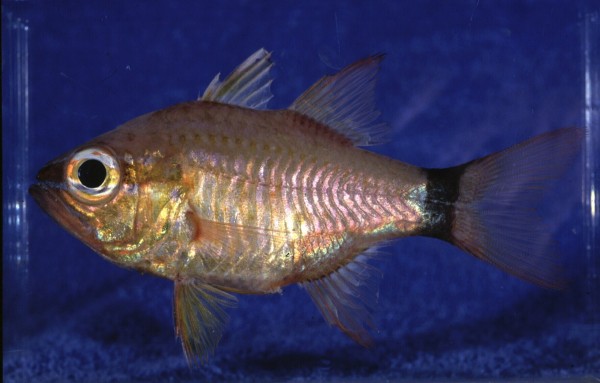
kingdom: Animalia
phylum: Chordata
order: Perciformes
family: Apogonidae
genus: Ostorhinchus
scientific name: Ostorhinchus fleurieu
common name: Bullseye cardinalfish
